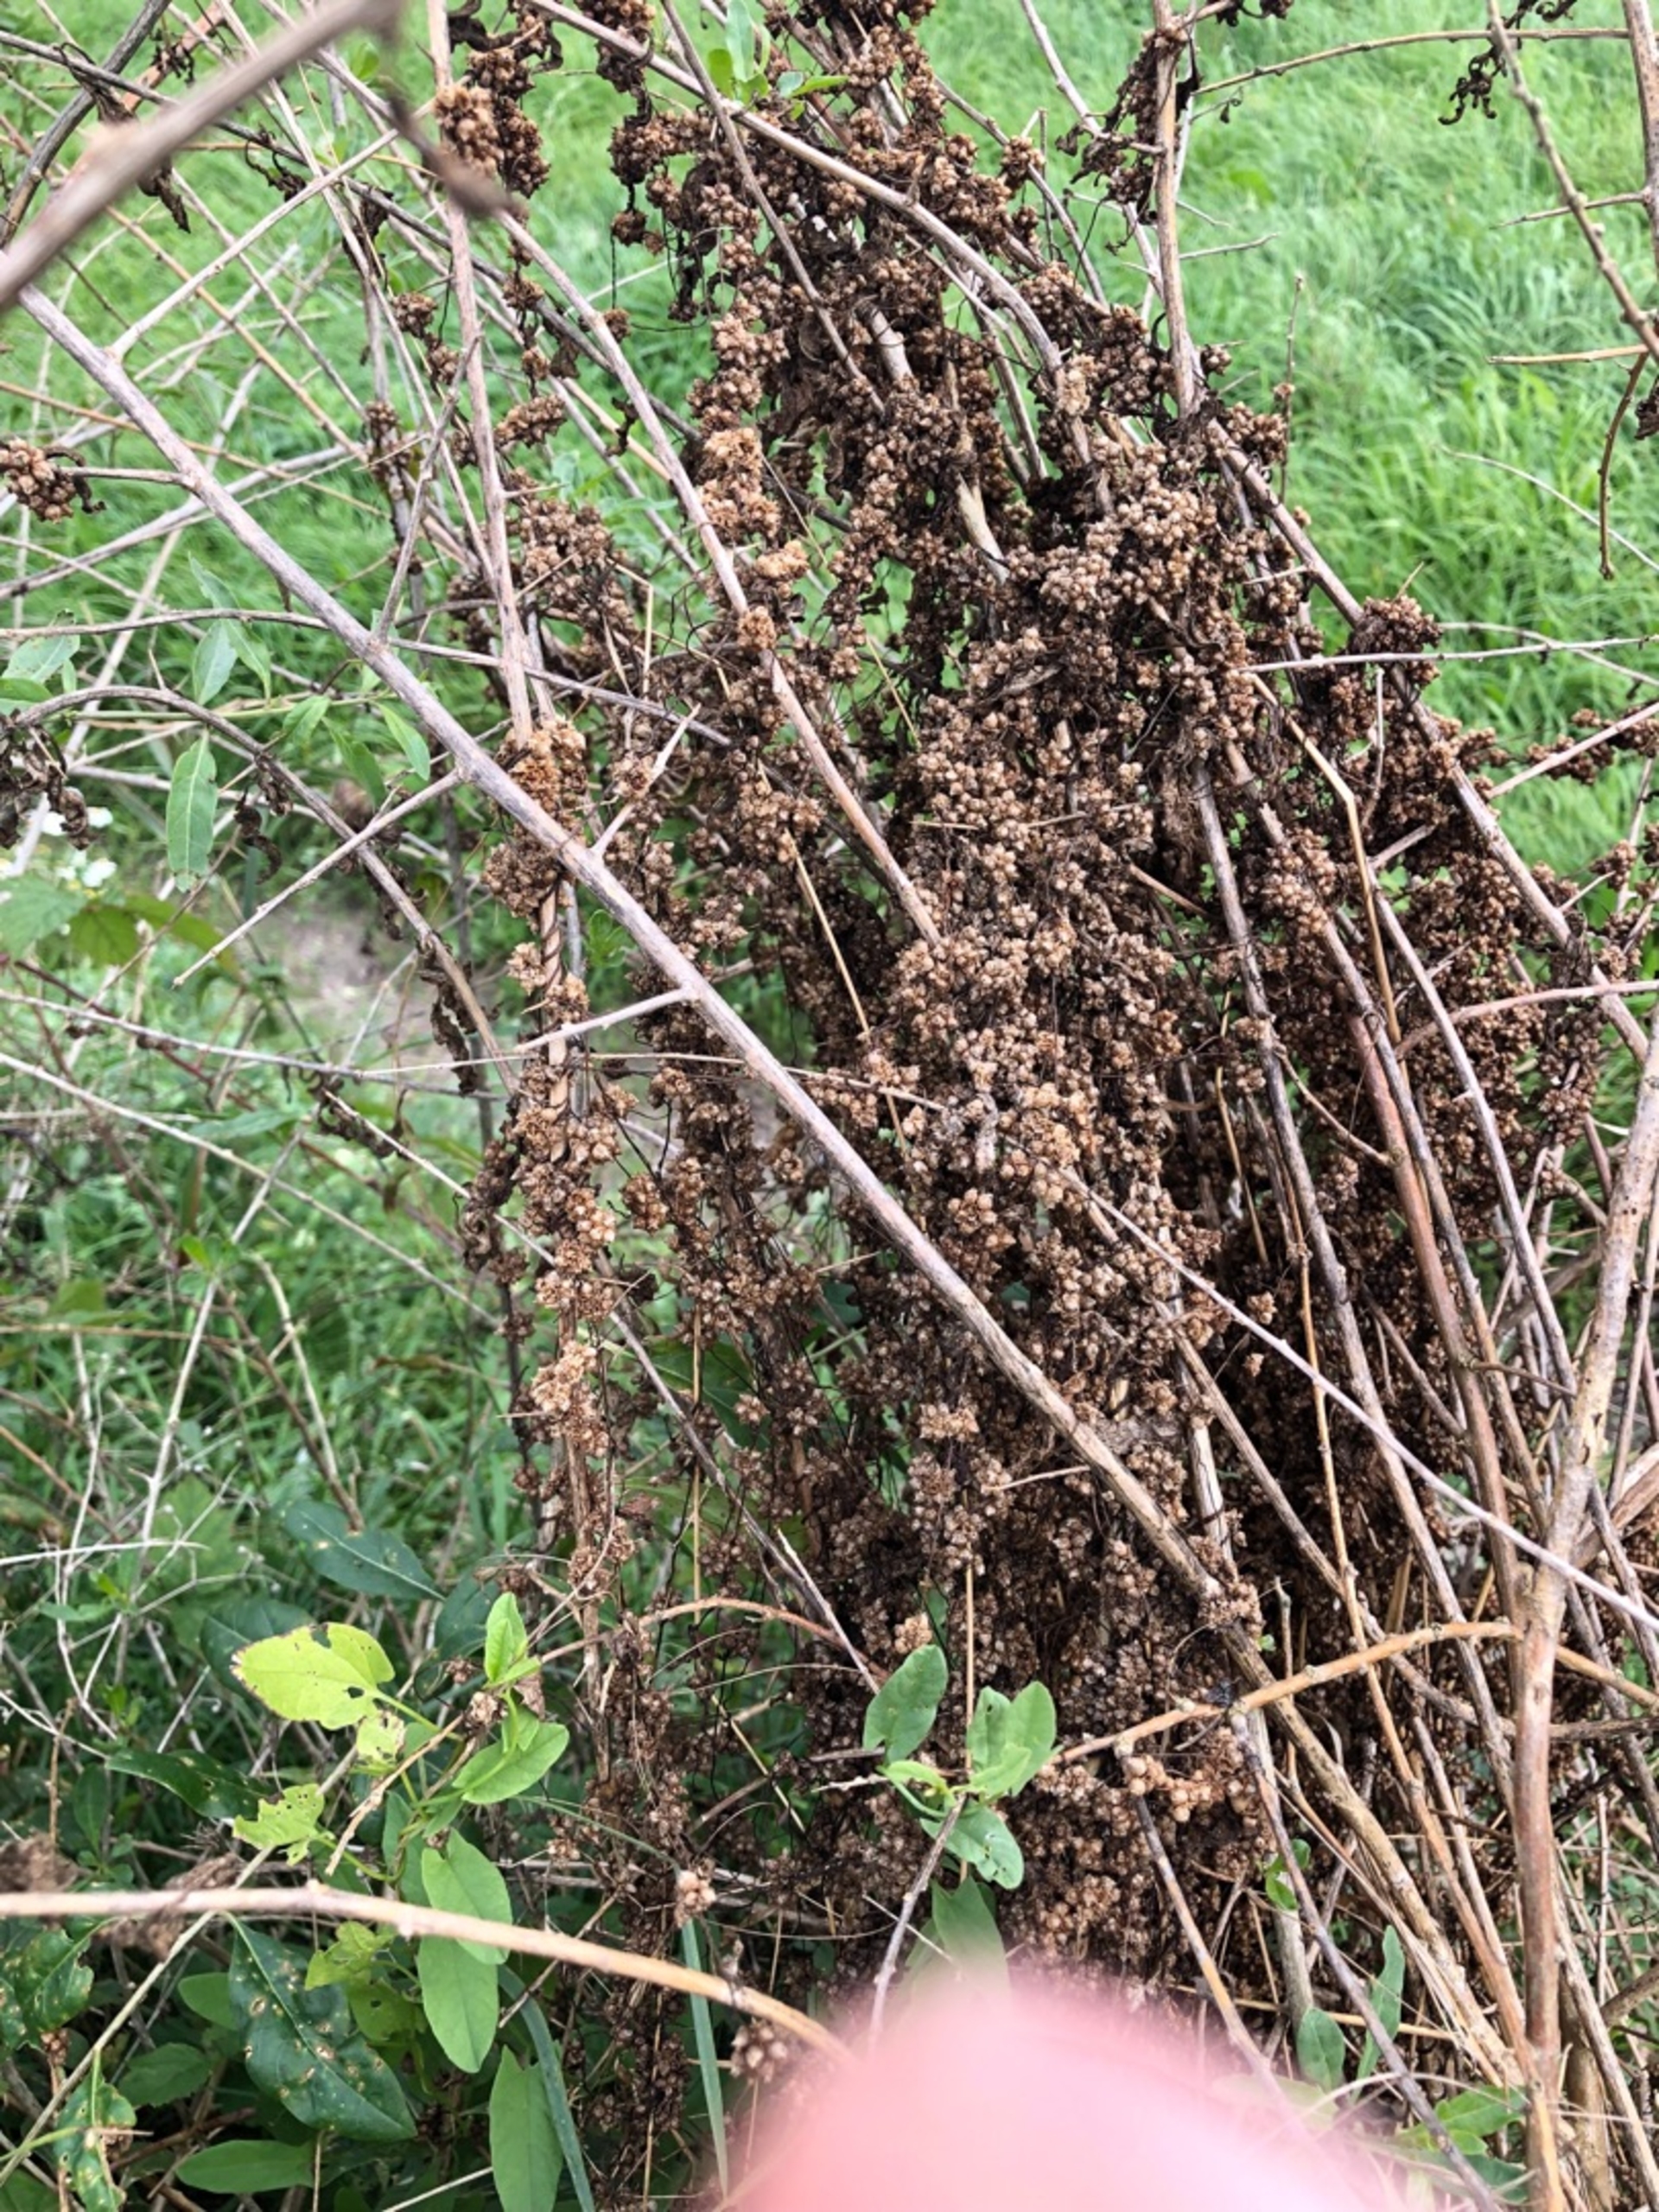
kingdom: Plantae
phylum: Tracheophyta
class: Magnoliopsida
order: Solanales
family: Convolvulaceae
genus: Cuscuta
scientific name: Cuscuta europaea
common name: Nælde-silke
